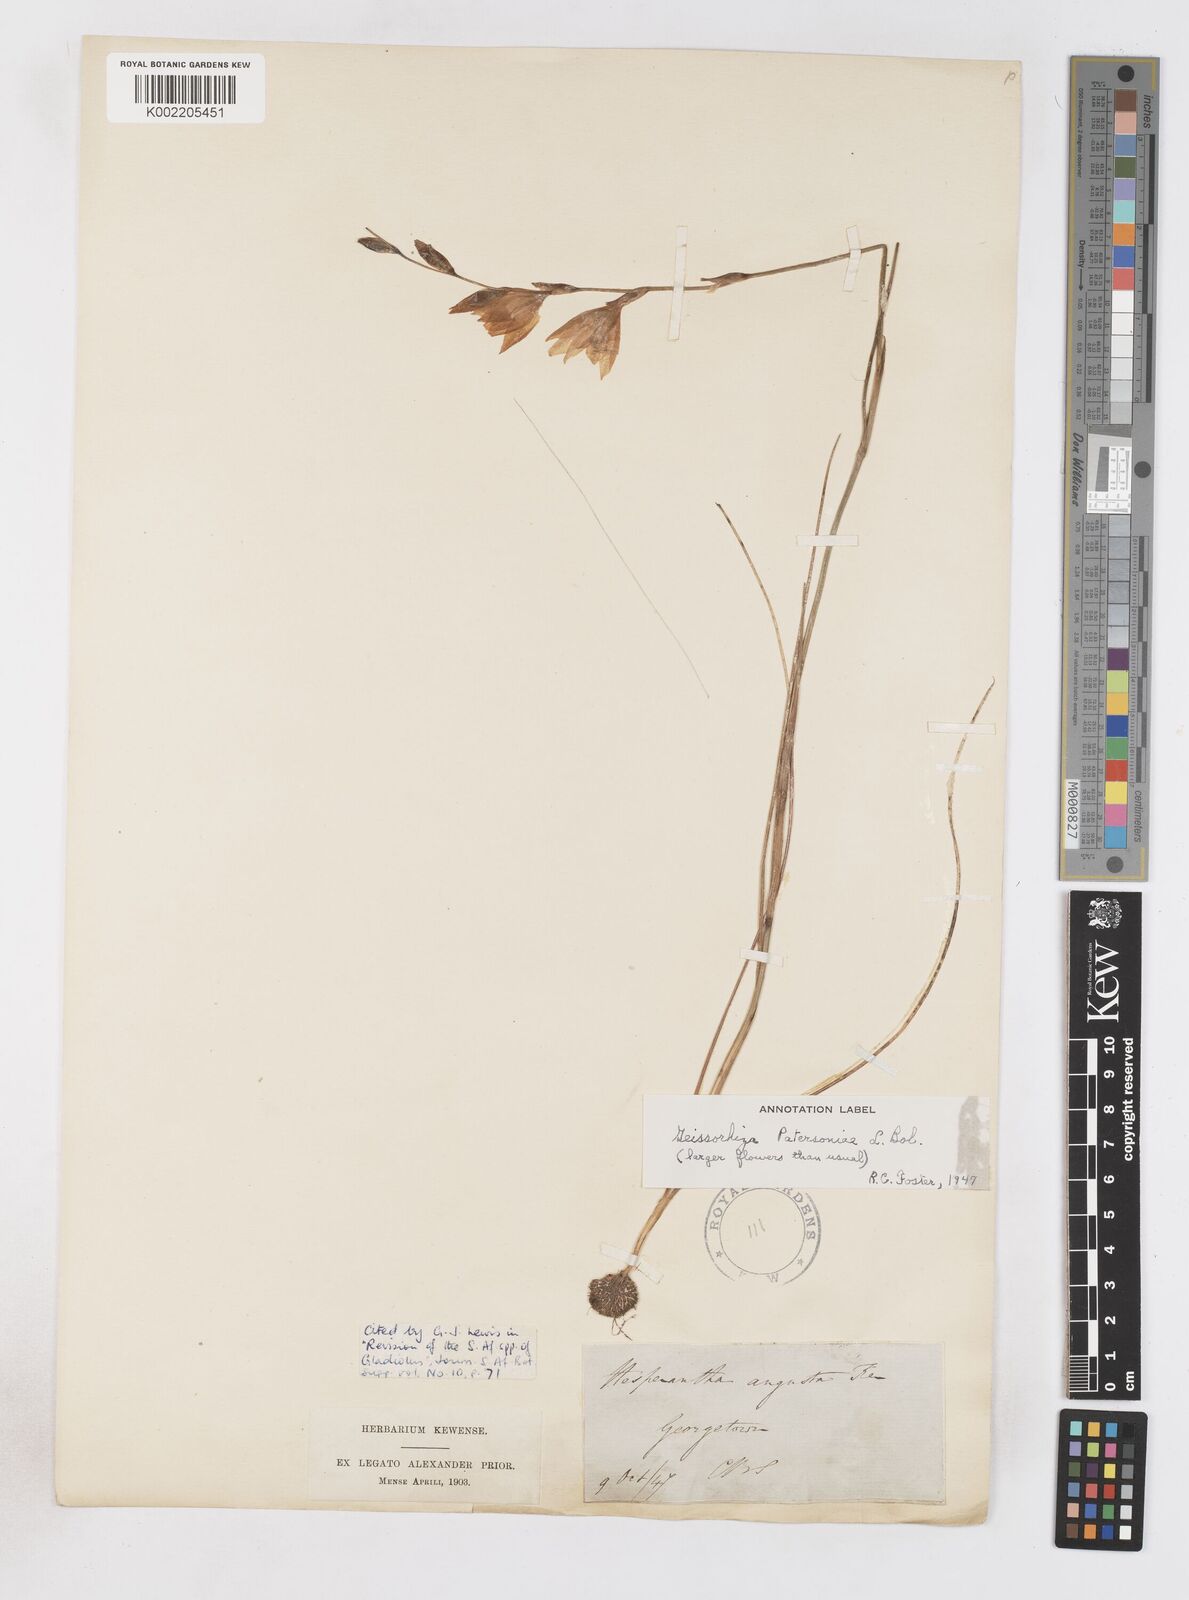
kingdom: Plantae
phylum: Tracheophyta
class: Liliopsida
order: Asparagales
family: Iridaceae
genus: Gladiolus
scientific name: Gladiolus stellatus
